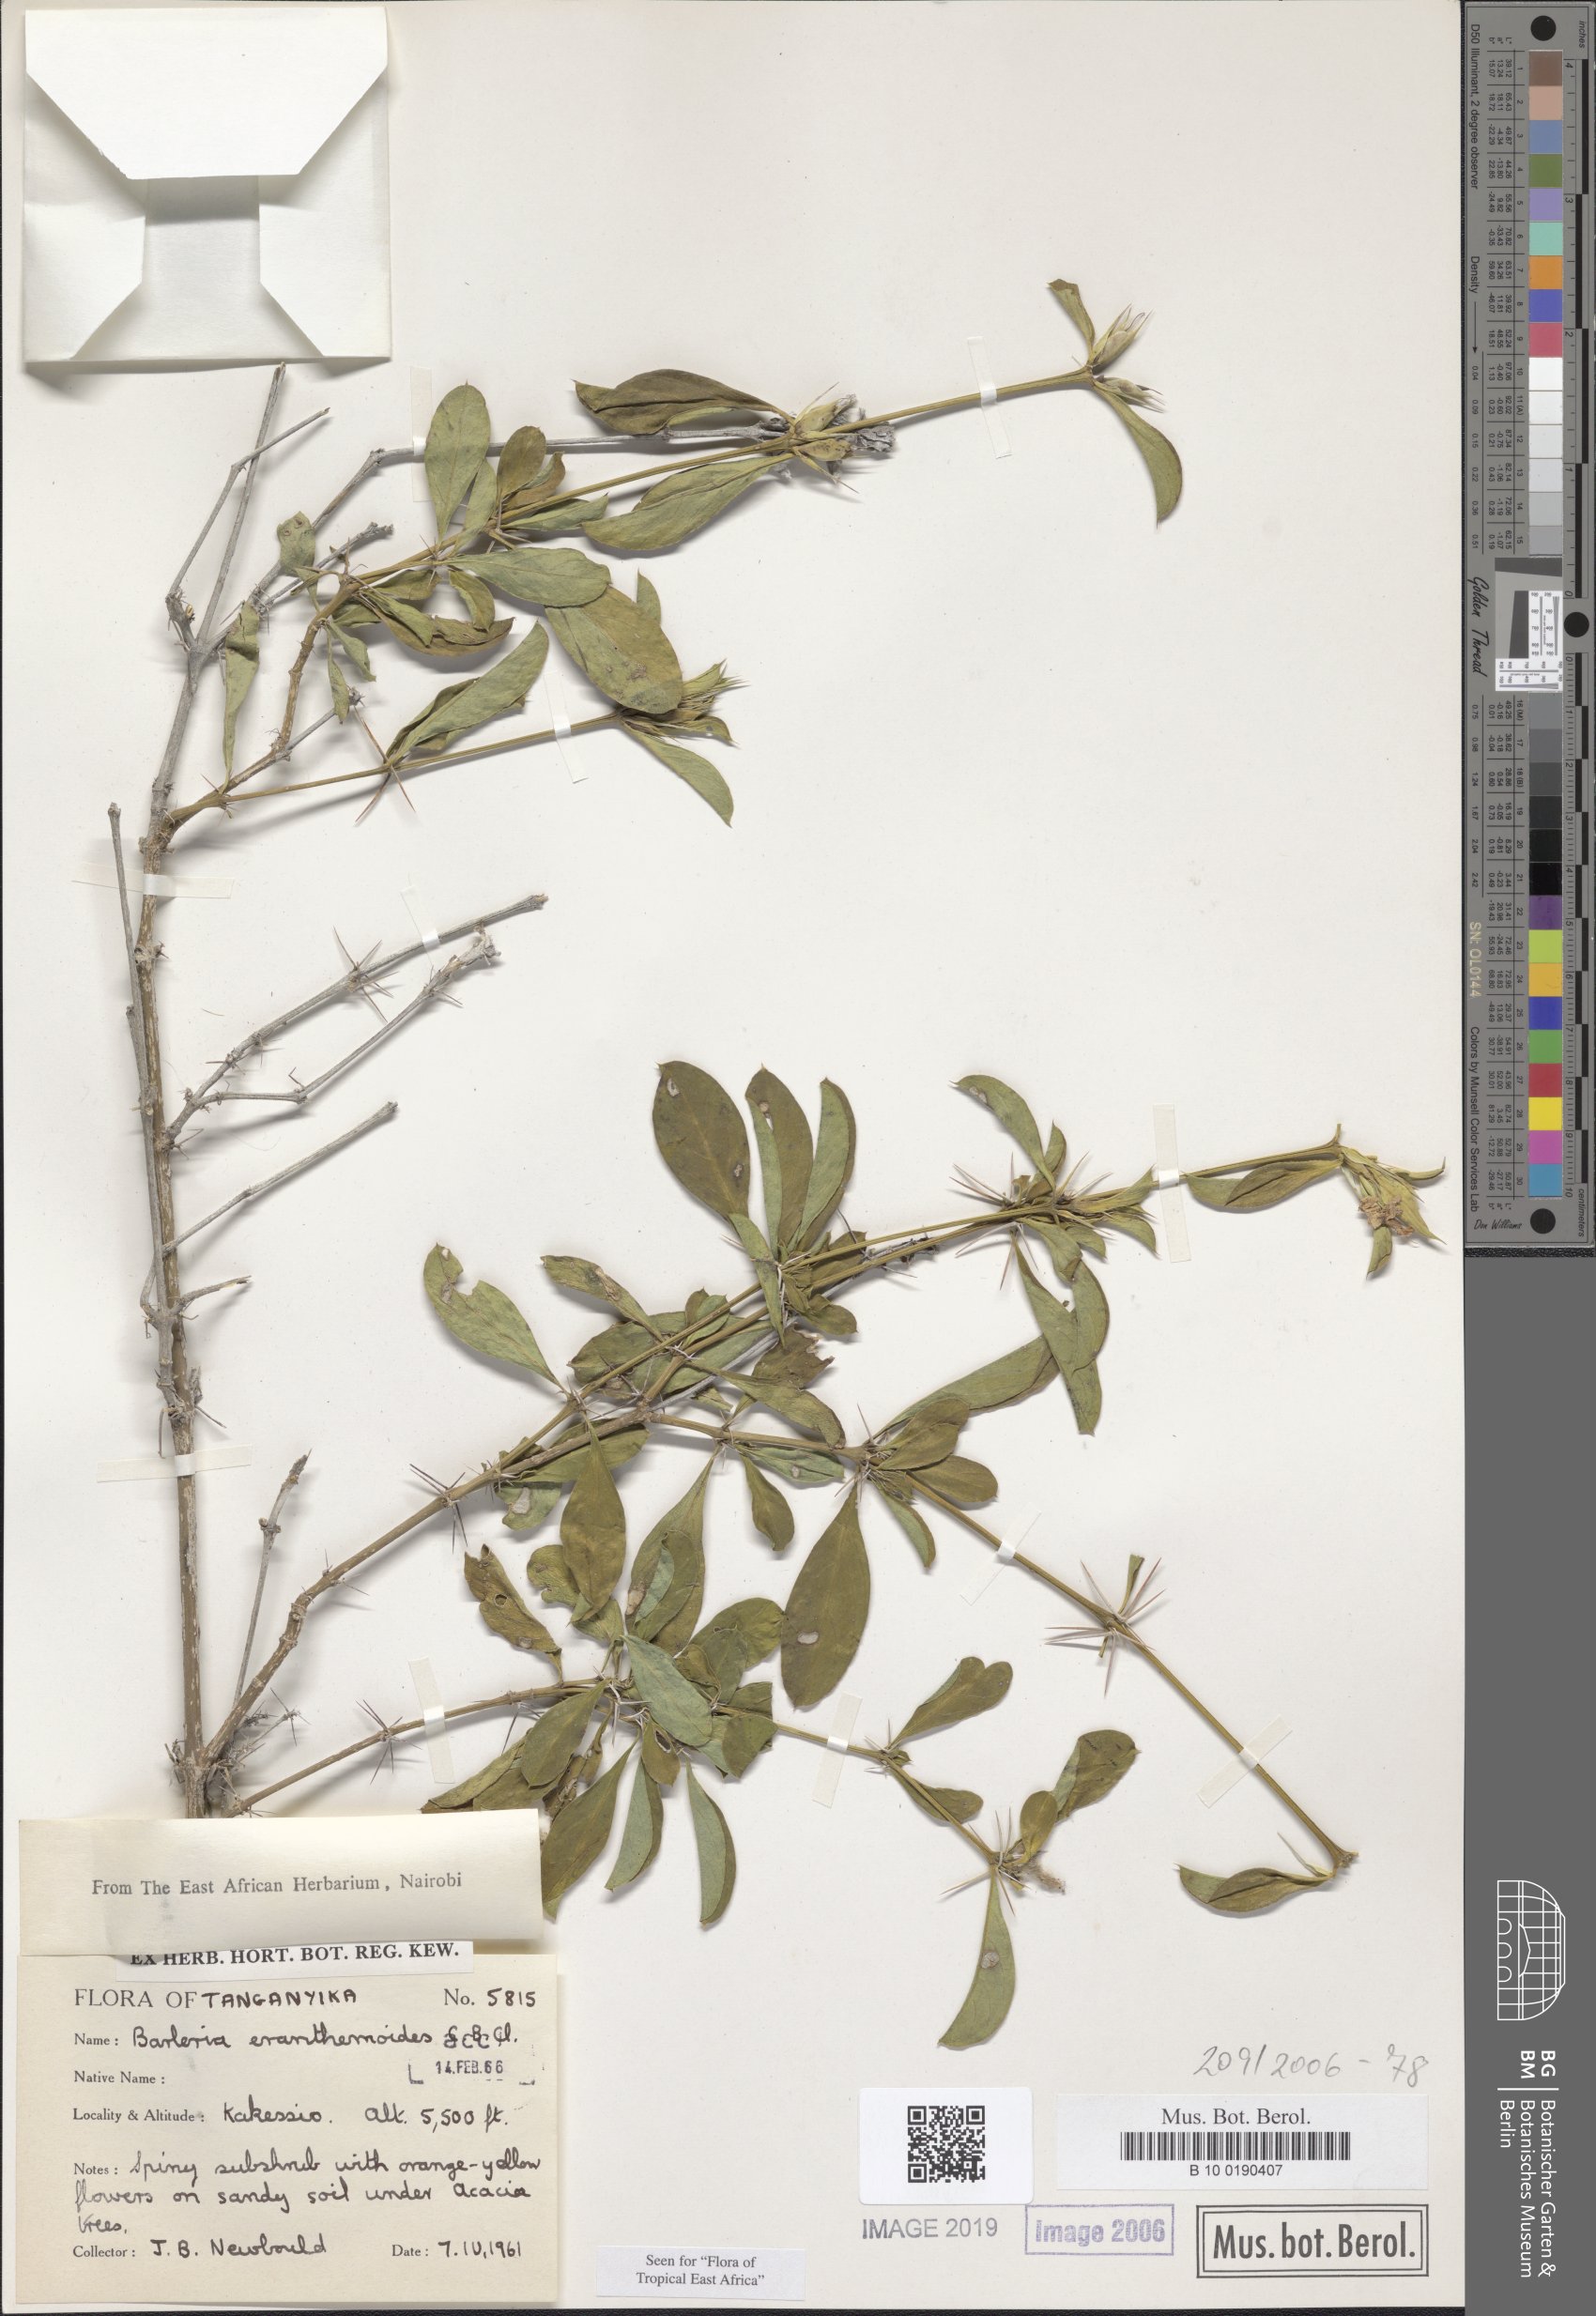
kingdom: Plantae
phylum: Tracheophyta
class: Magnoliopsida
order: Lamiales
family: Acanthaceae
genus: Barleria
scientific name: Barleria eranthemoides
